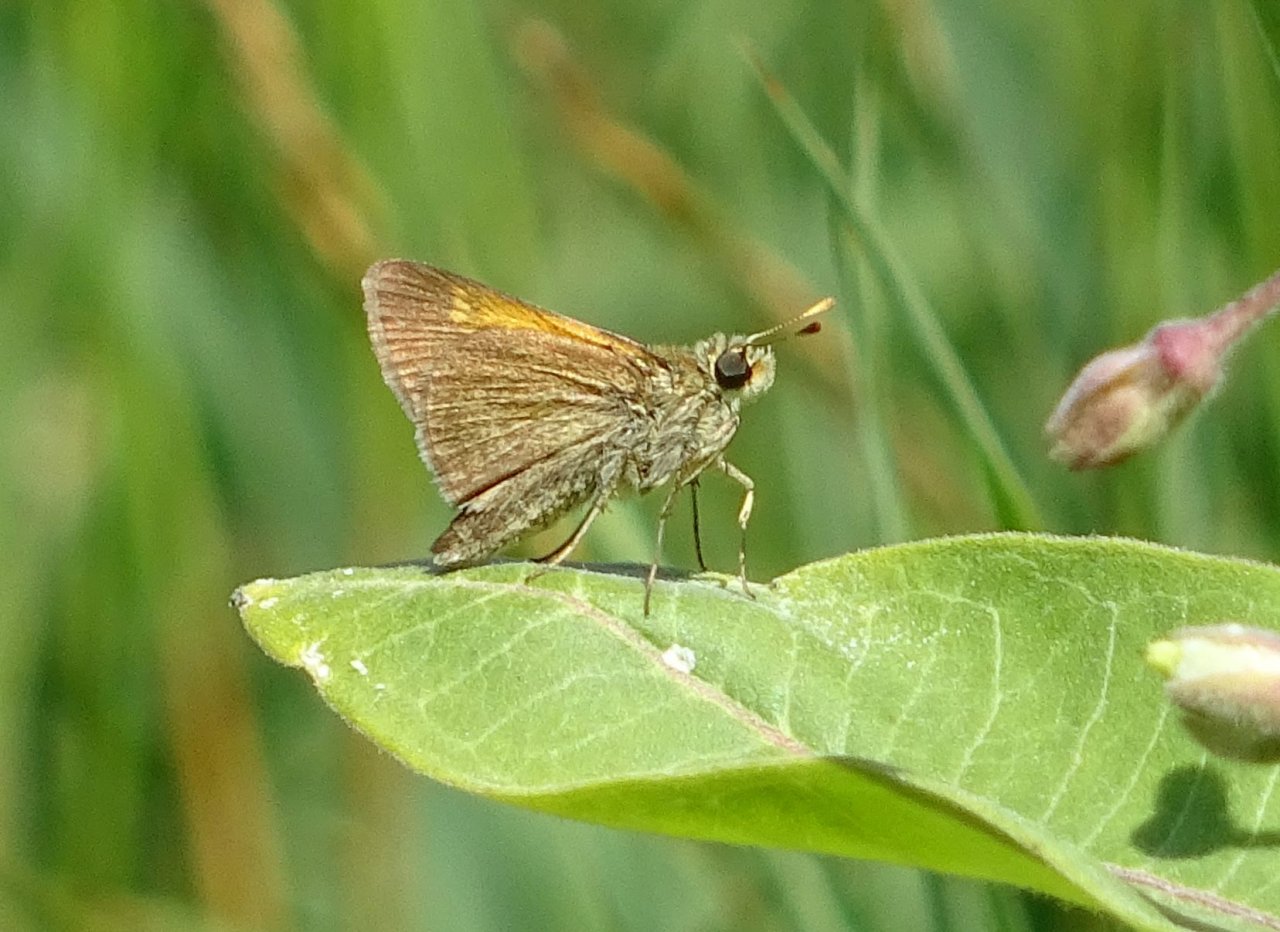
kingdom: Animalia
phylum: Arthropoda
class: Insecta
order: Lepidoptera
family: Hesperiidae
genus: Polites
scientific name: Polites themistocles
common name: Tawny-edged Skipper
